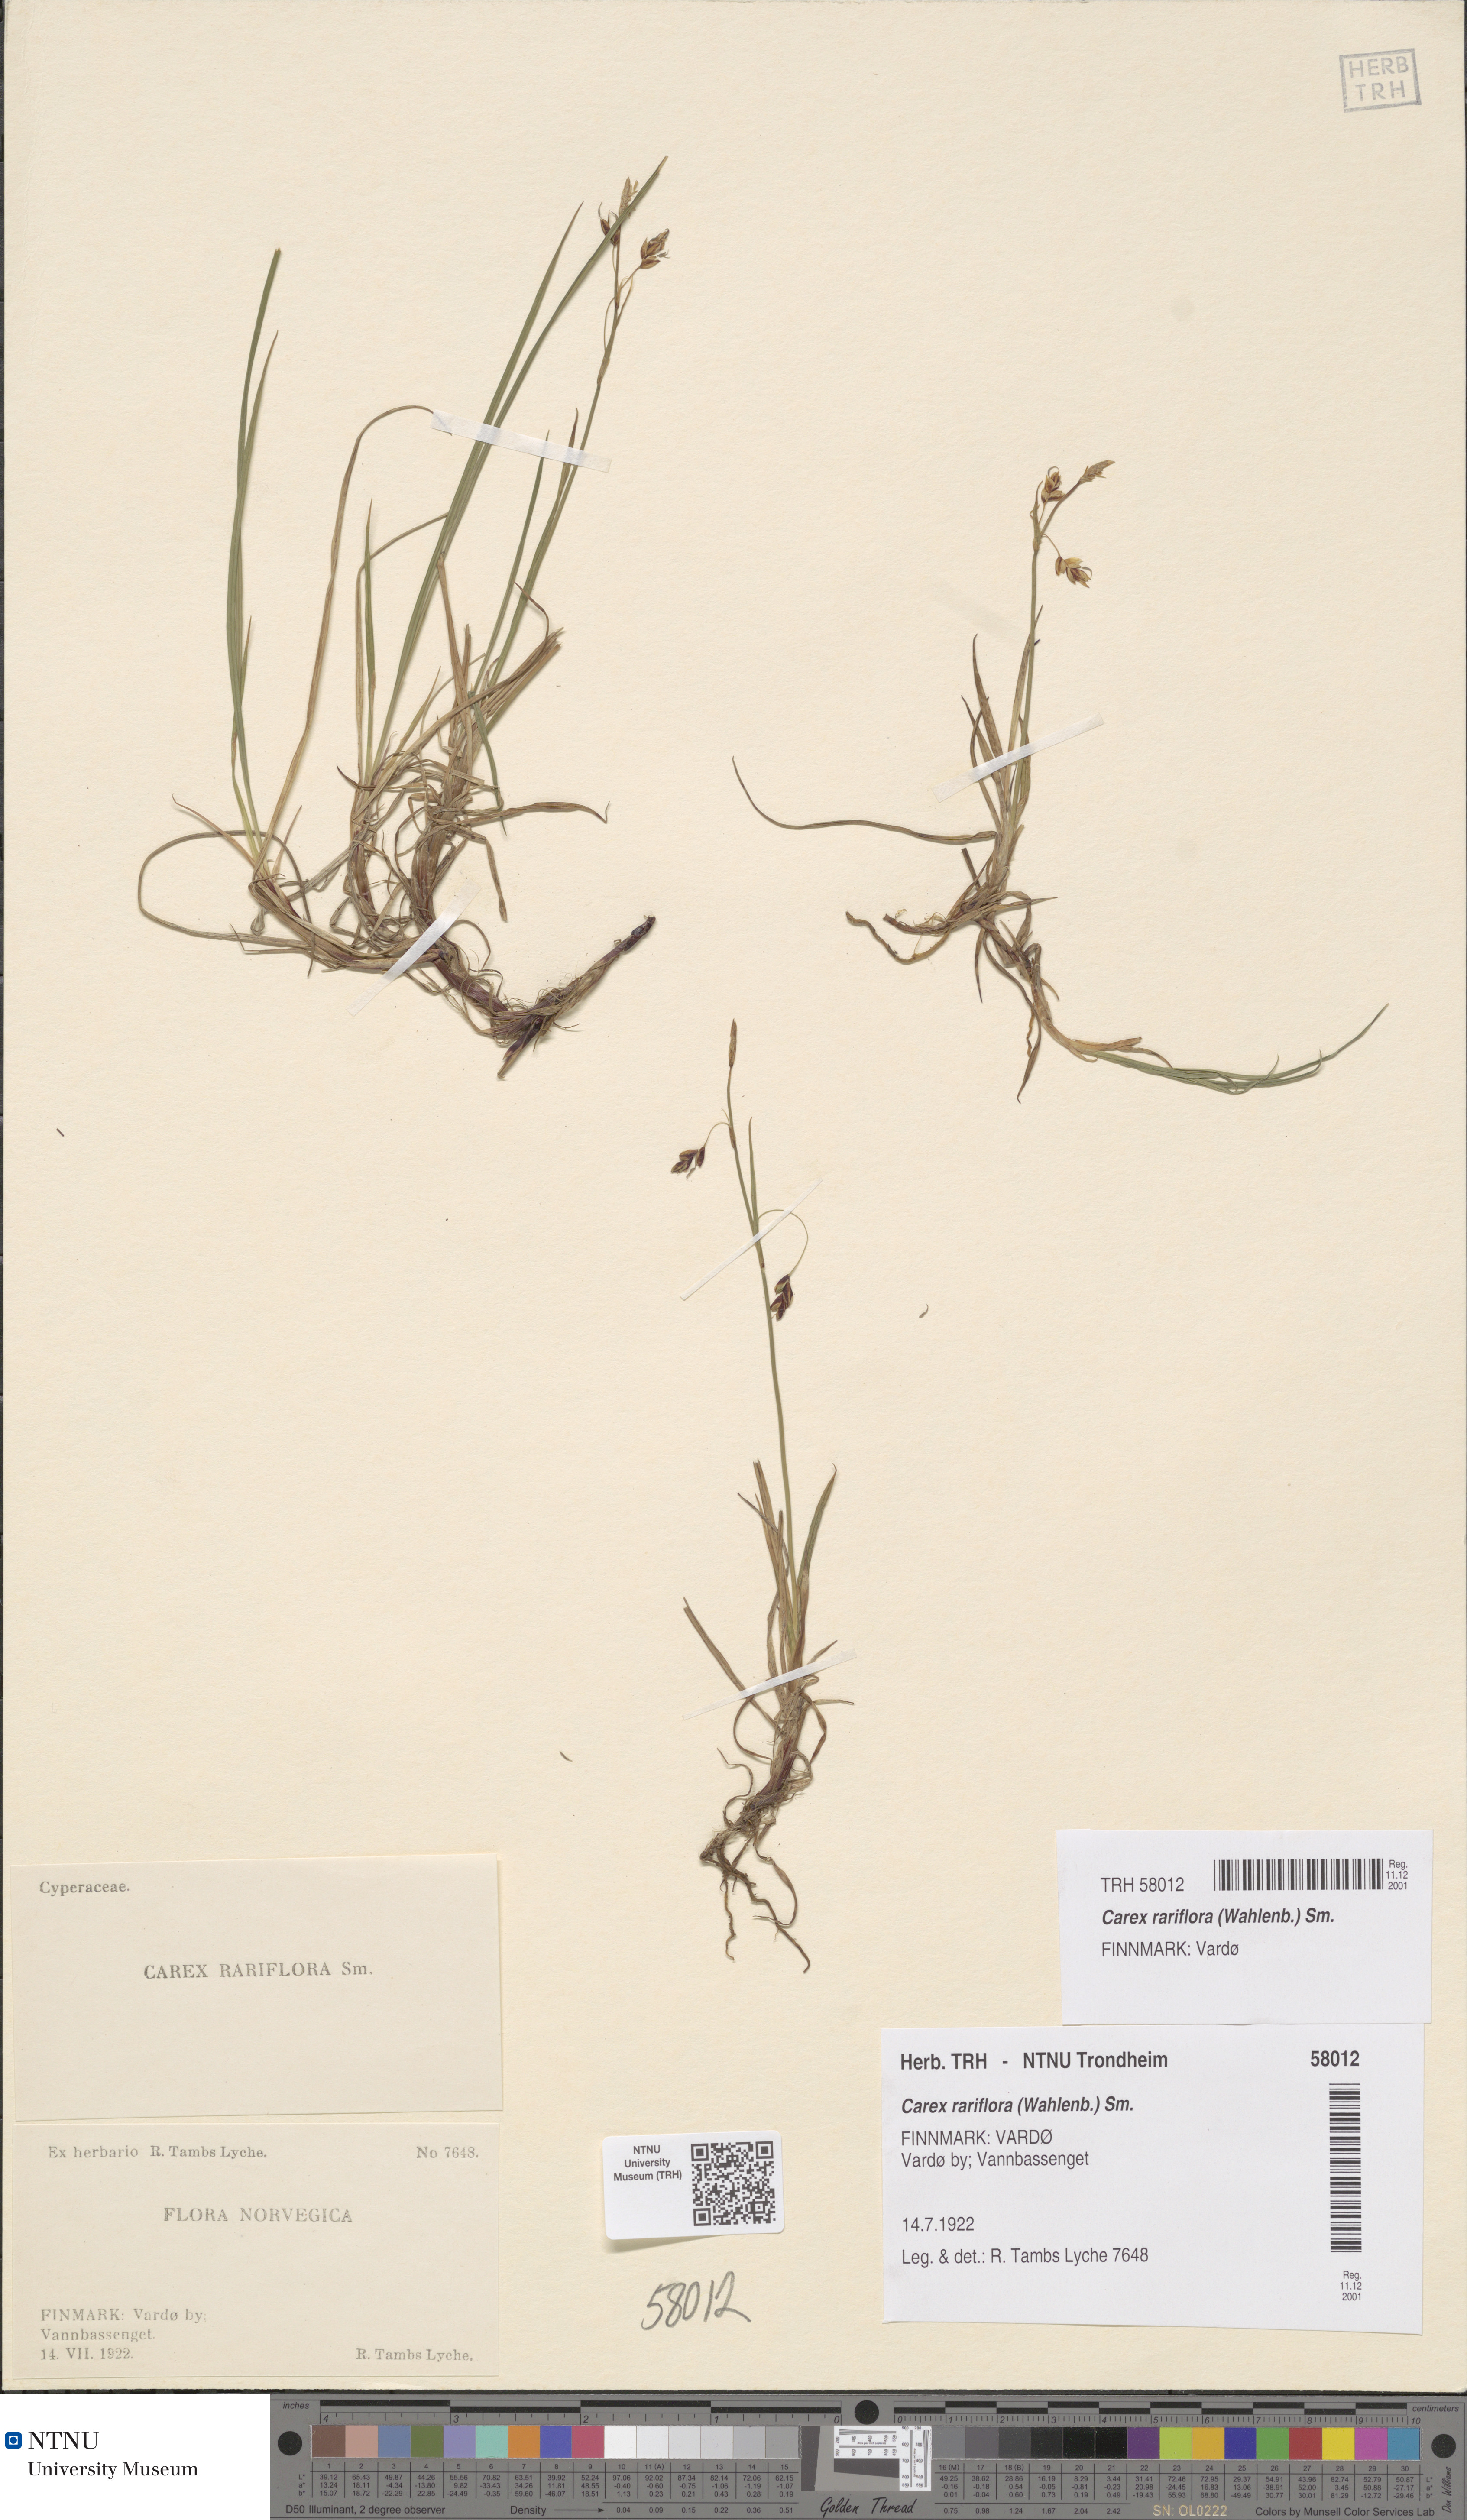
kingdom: Plantae
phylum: Tracheophyta
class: Liliopsida
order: Poales
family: Cyperaceae
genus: Carex
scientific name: Carex rariflora
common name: Loose-flowered alpine sedge
